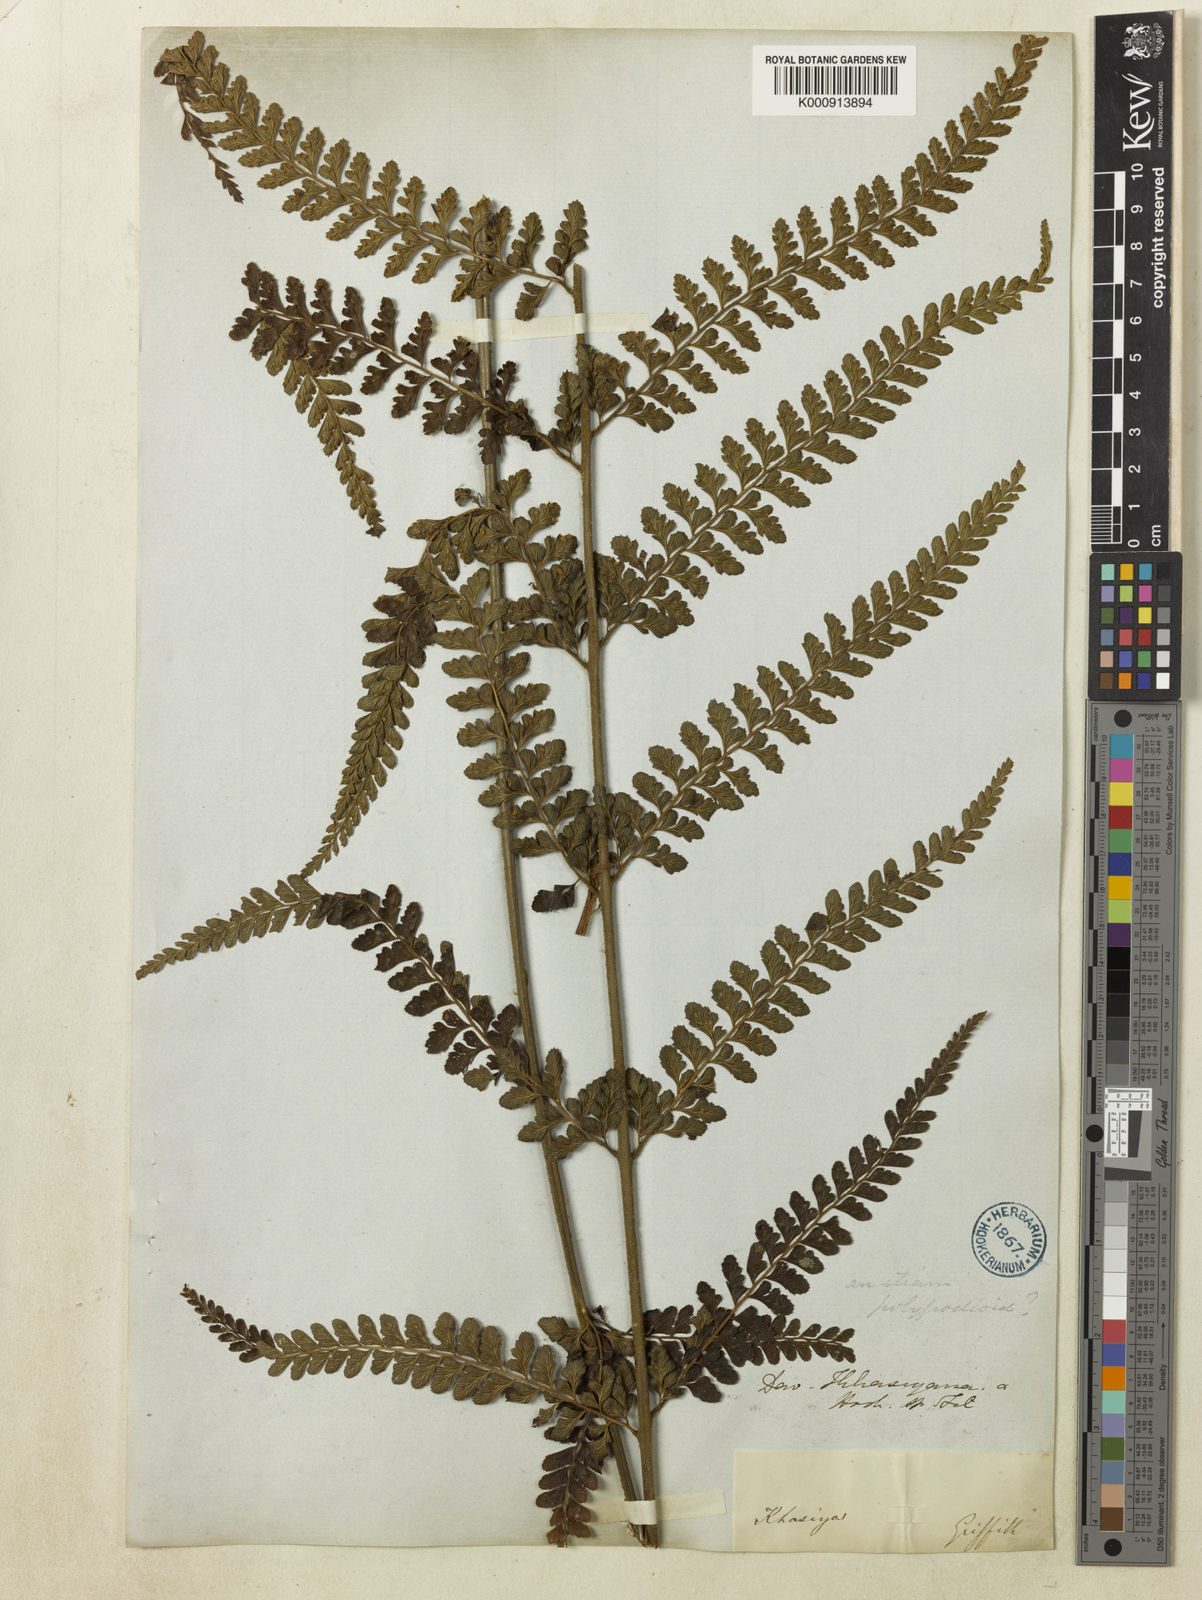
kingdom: Plantae
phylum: Tracheophyta
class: Polypodiopsida
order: Polypodiales
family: Dennstaedtiaceae
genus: Microlepia
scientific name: Microlepia strigosa
